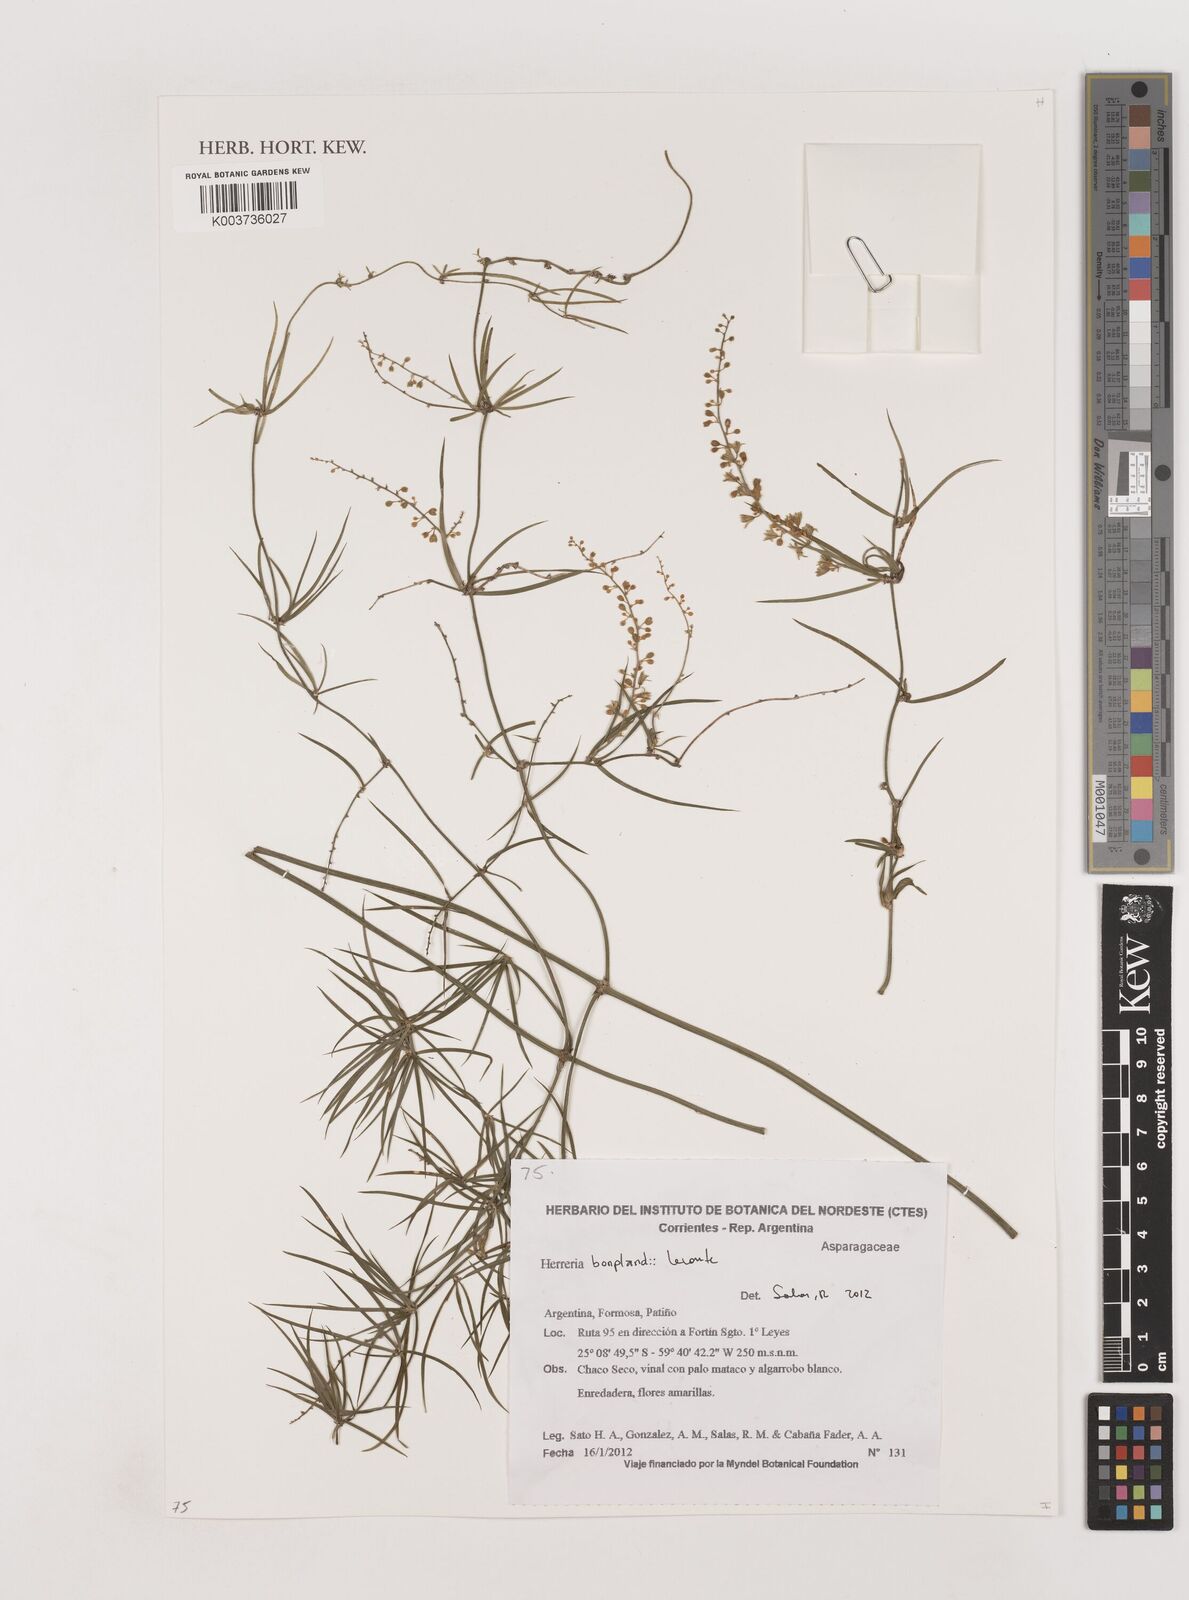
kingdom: Plantae
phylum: Tracheophyta
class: Liliopsida
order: Asparagales
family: Asparagaceae
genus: Herreria
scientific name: Herreria bonplandii
